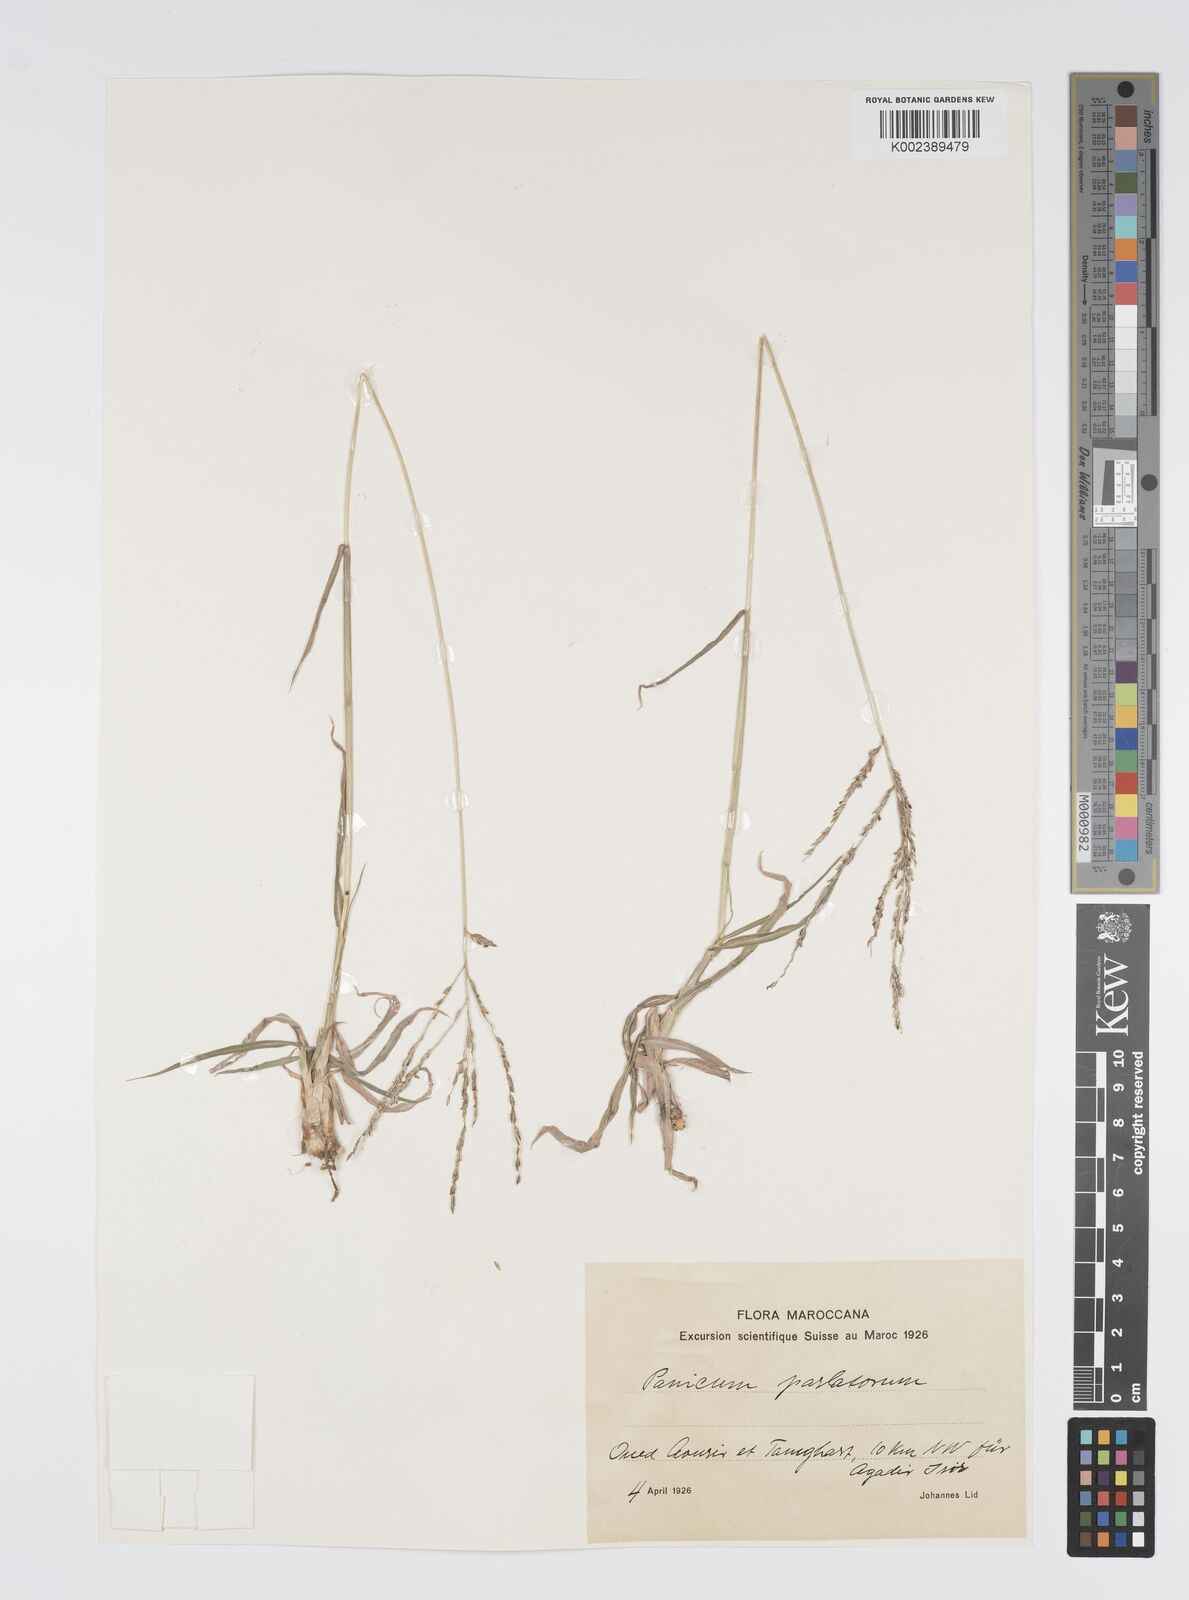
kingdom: Plantae
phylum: Tracheophyta
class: Liliopsida
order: Poales
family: Poaceae
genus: Digitaria
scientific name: Digitaria nodosa
